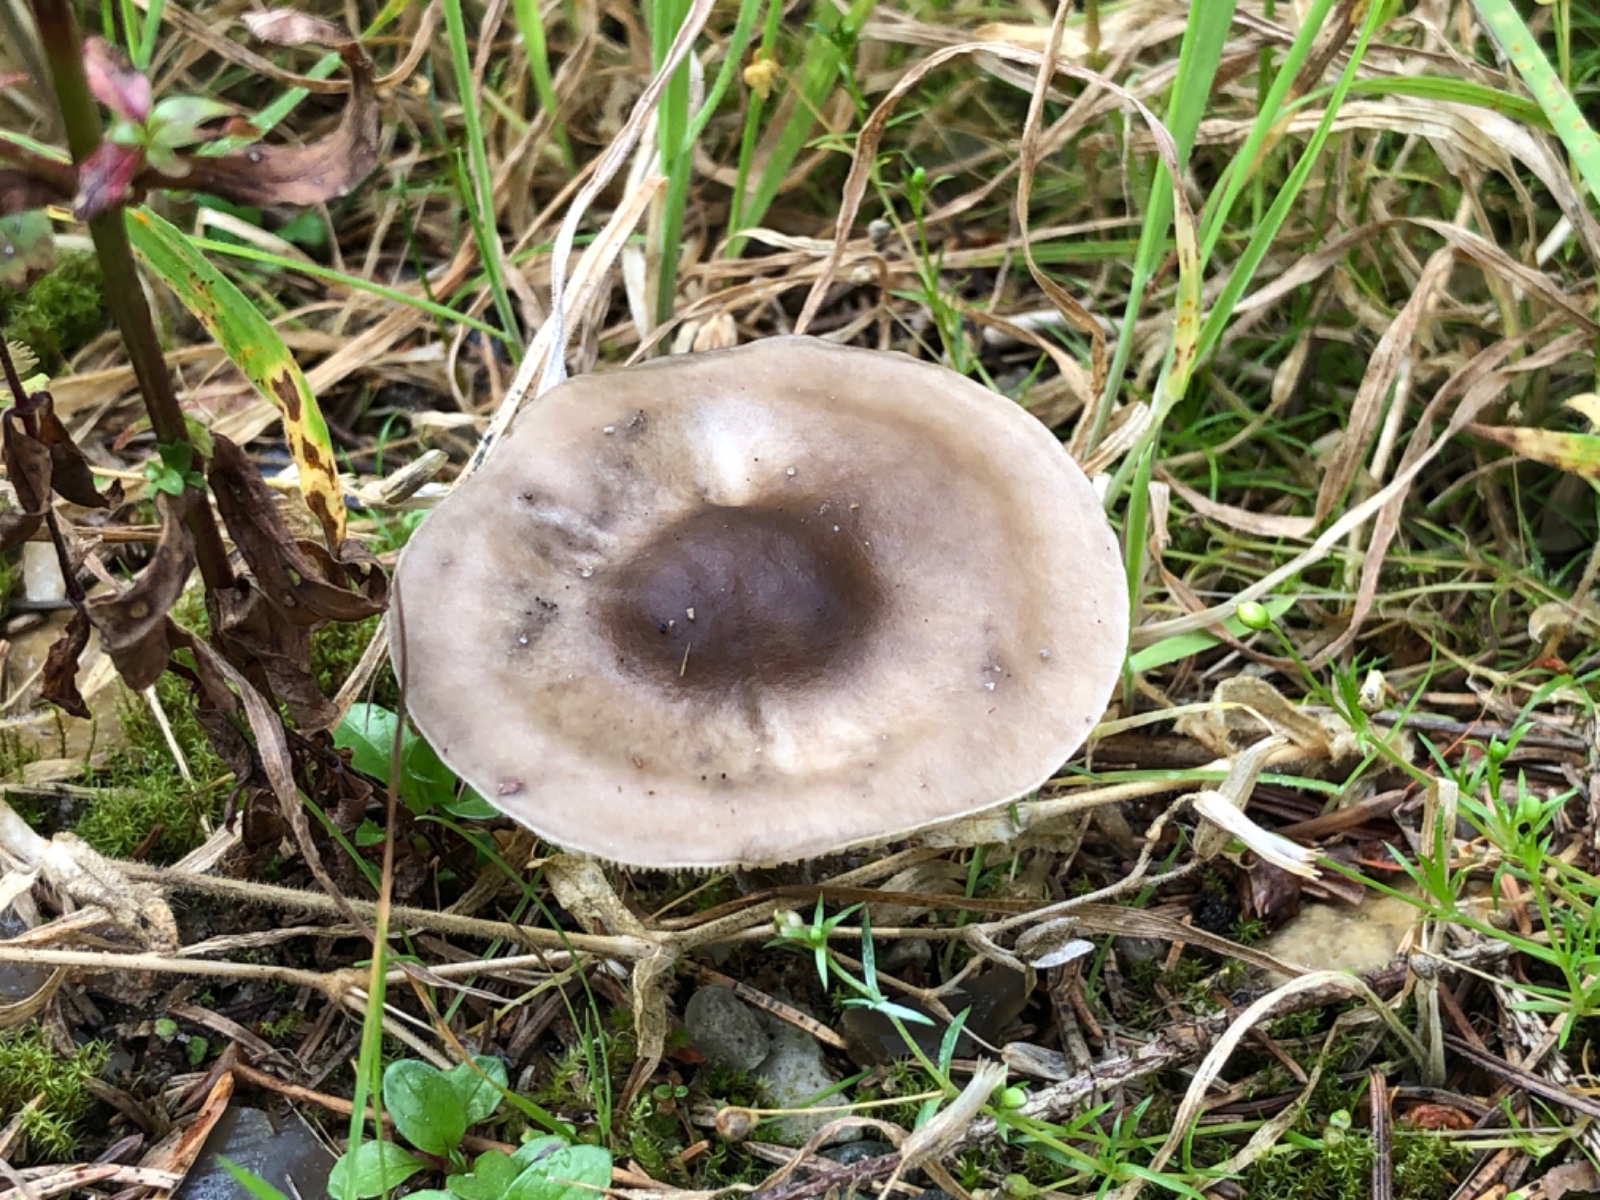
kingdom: Fungi
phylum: Basidiomycota
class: Agaricomycetes
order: Agaricales
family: Tricholomataceae
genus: Melanoleuca
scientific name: Melanoleuca
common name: munkehat
